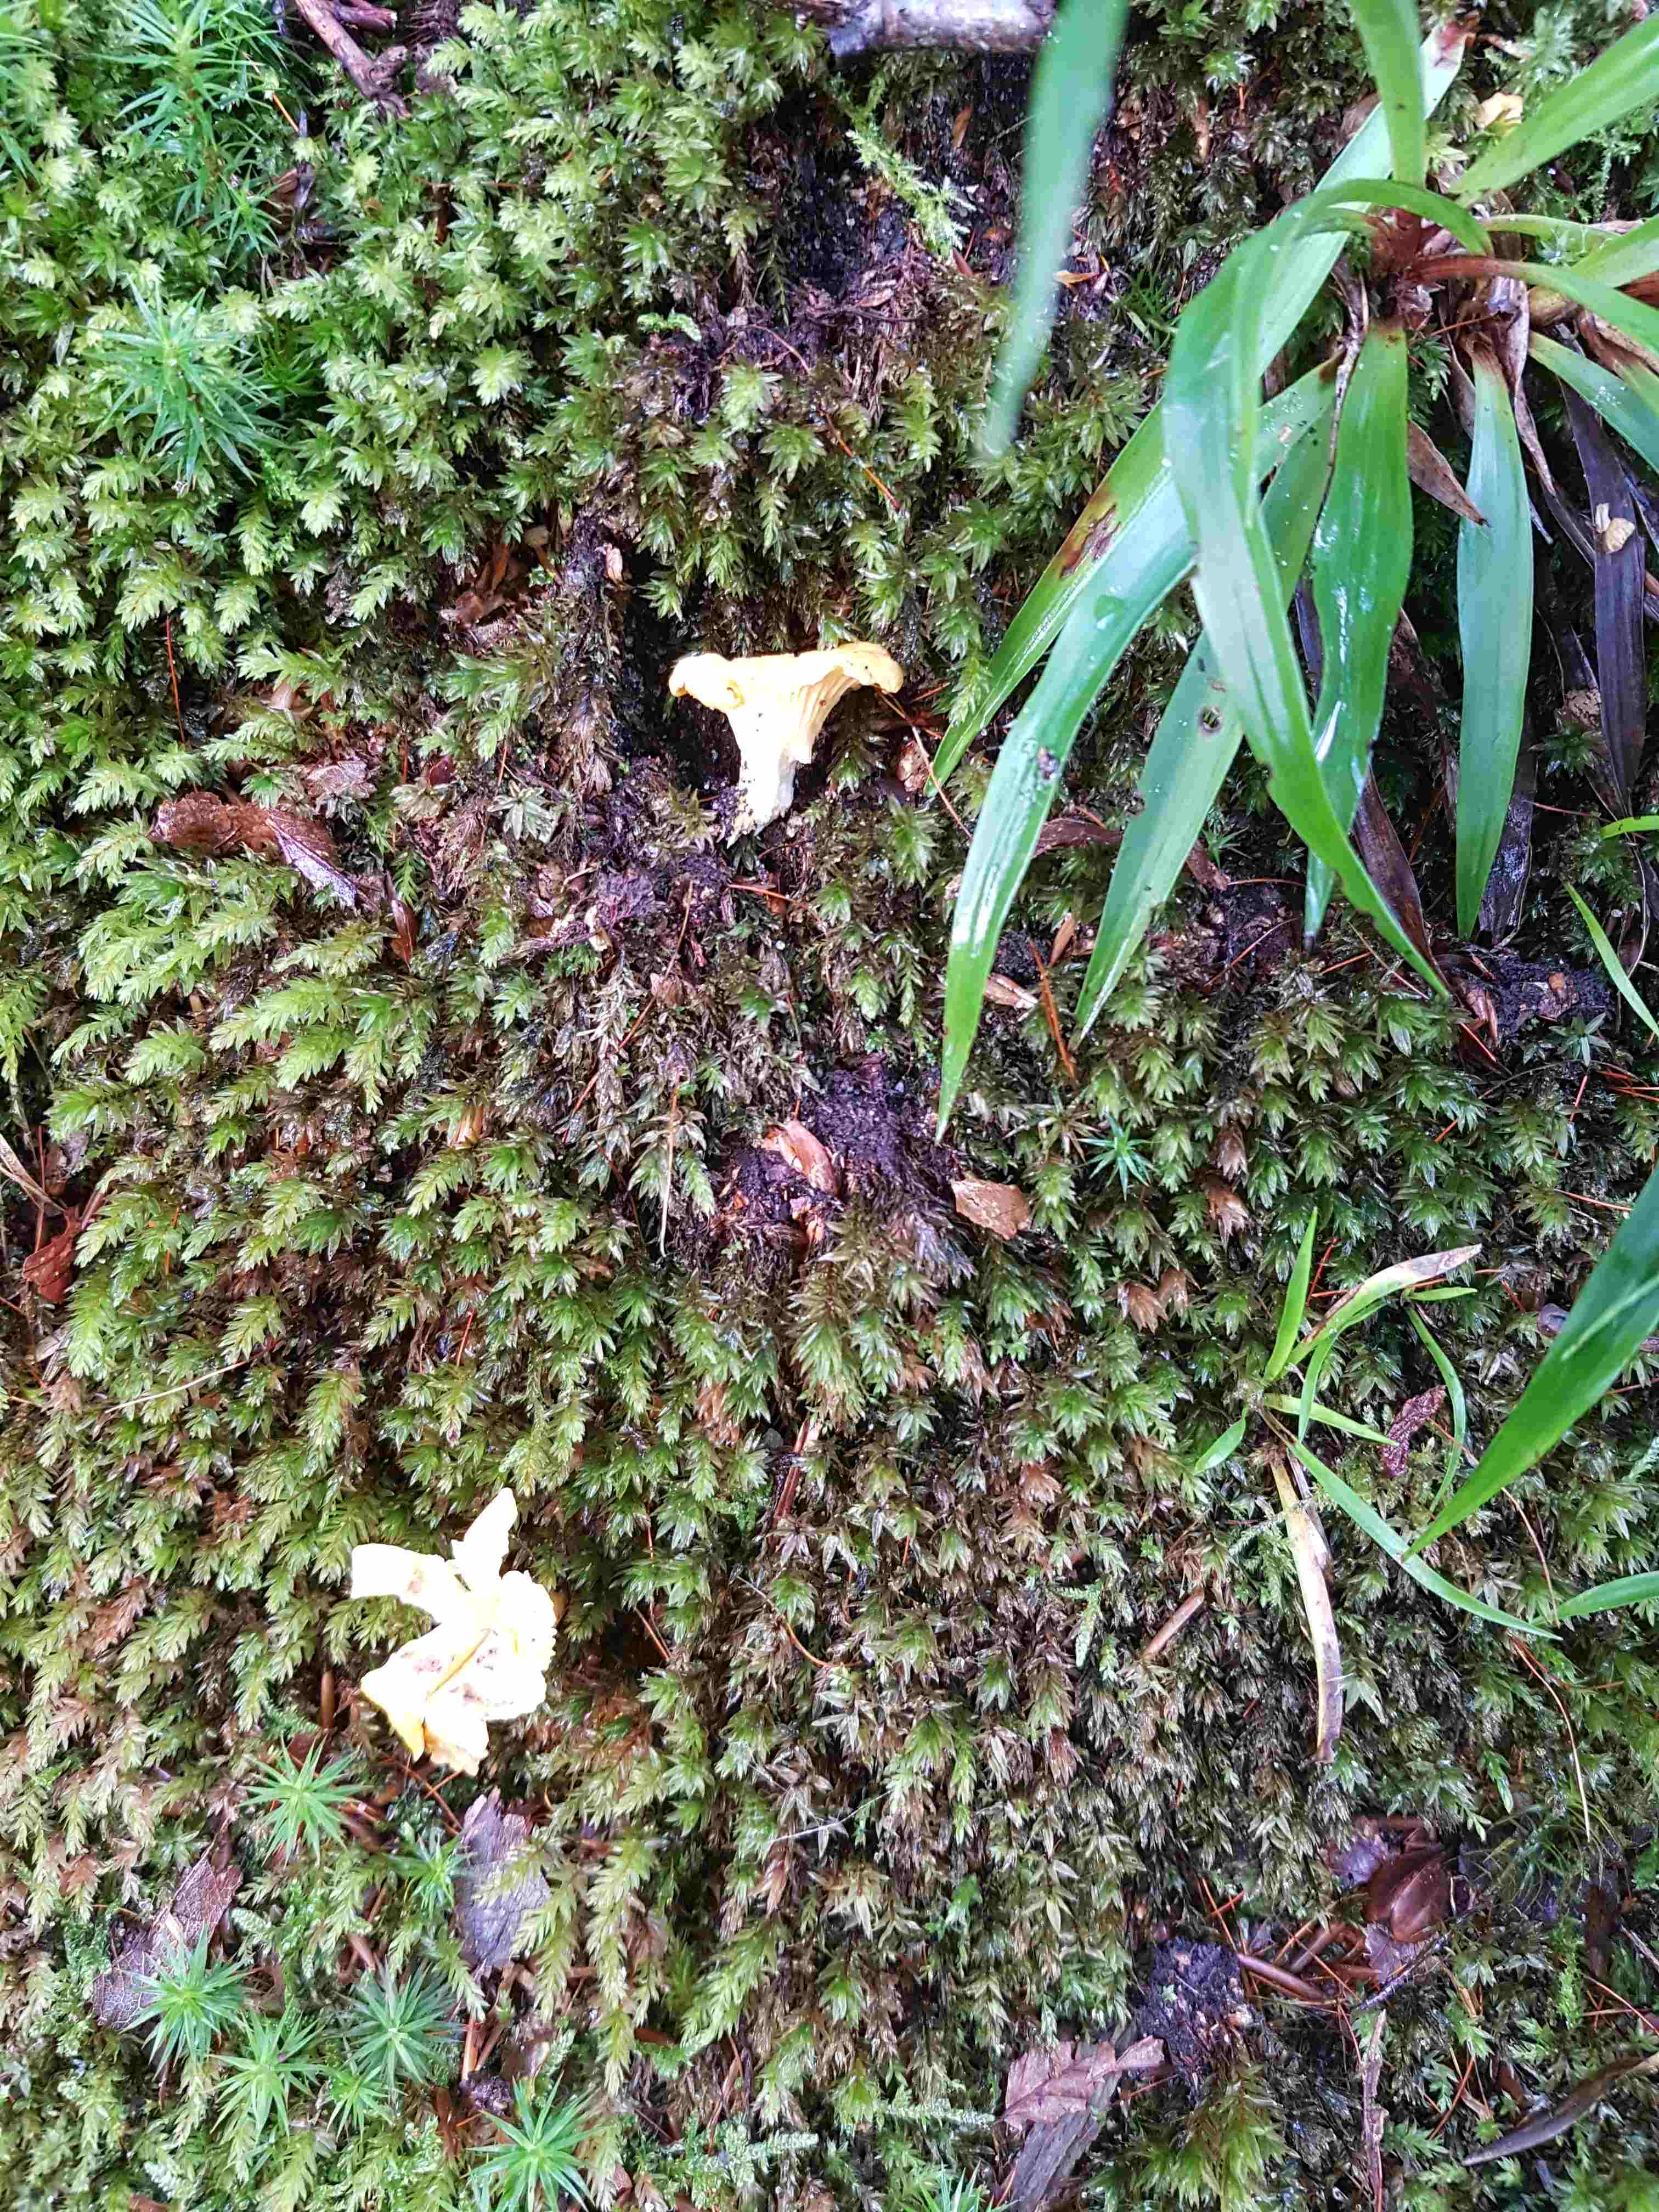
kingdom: Fungi
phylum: Basidiomycota
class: Agaricomycetes
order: Cantharellales
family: Hydnaceae
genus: Cantharellus
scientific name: Cantharellus cibarius
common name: almindelig kantarel
